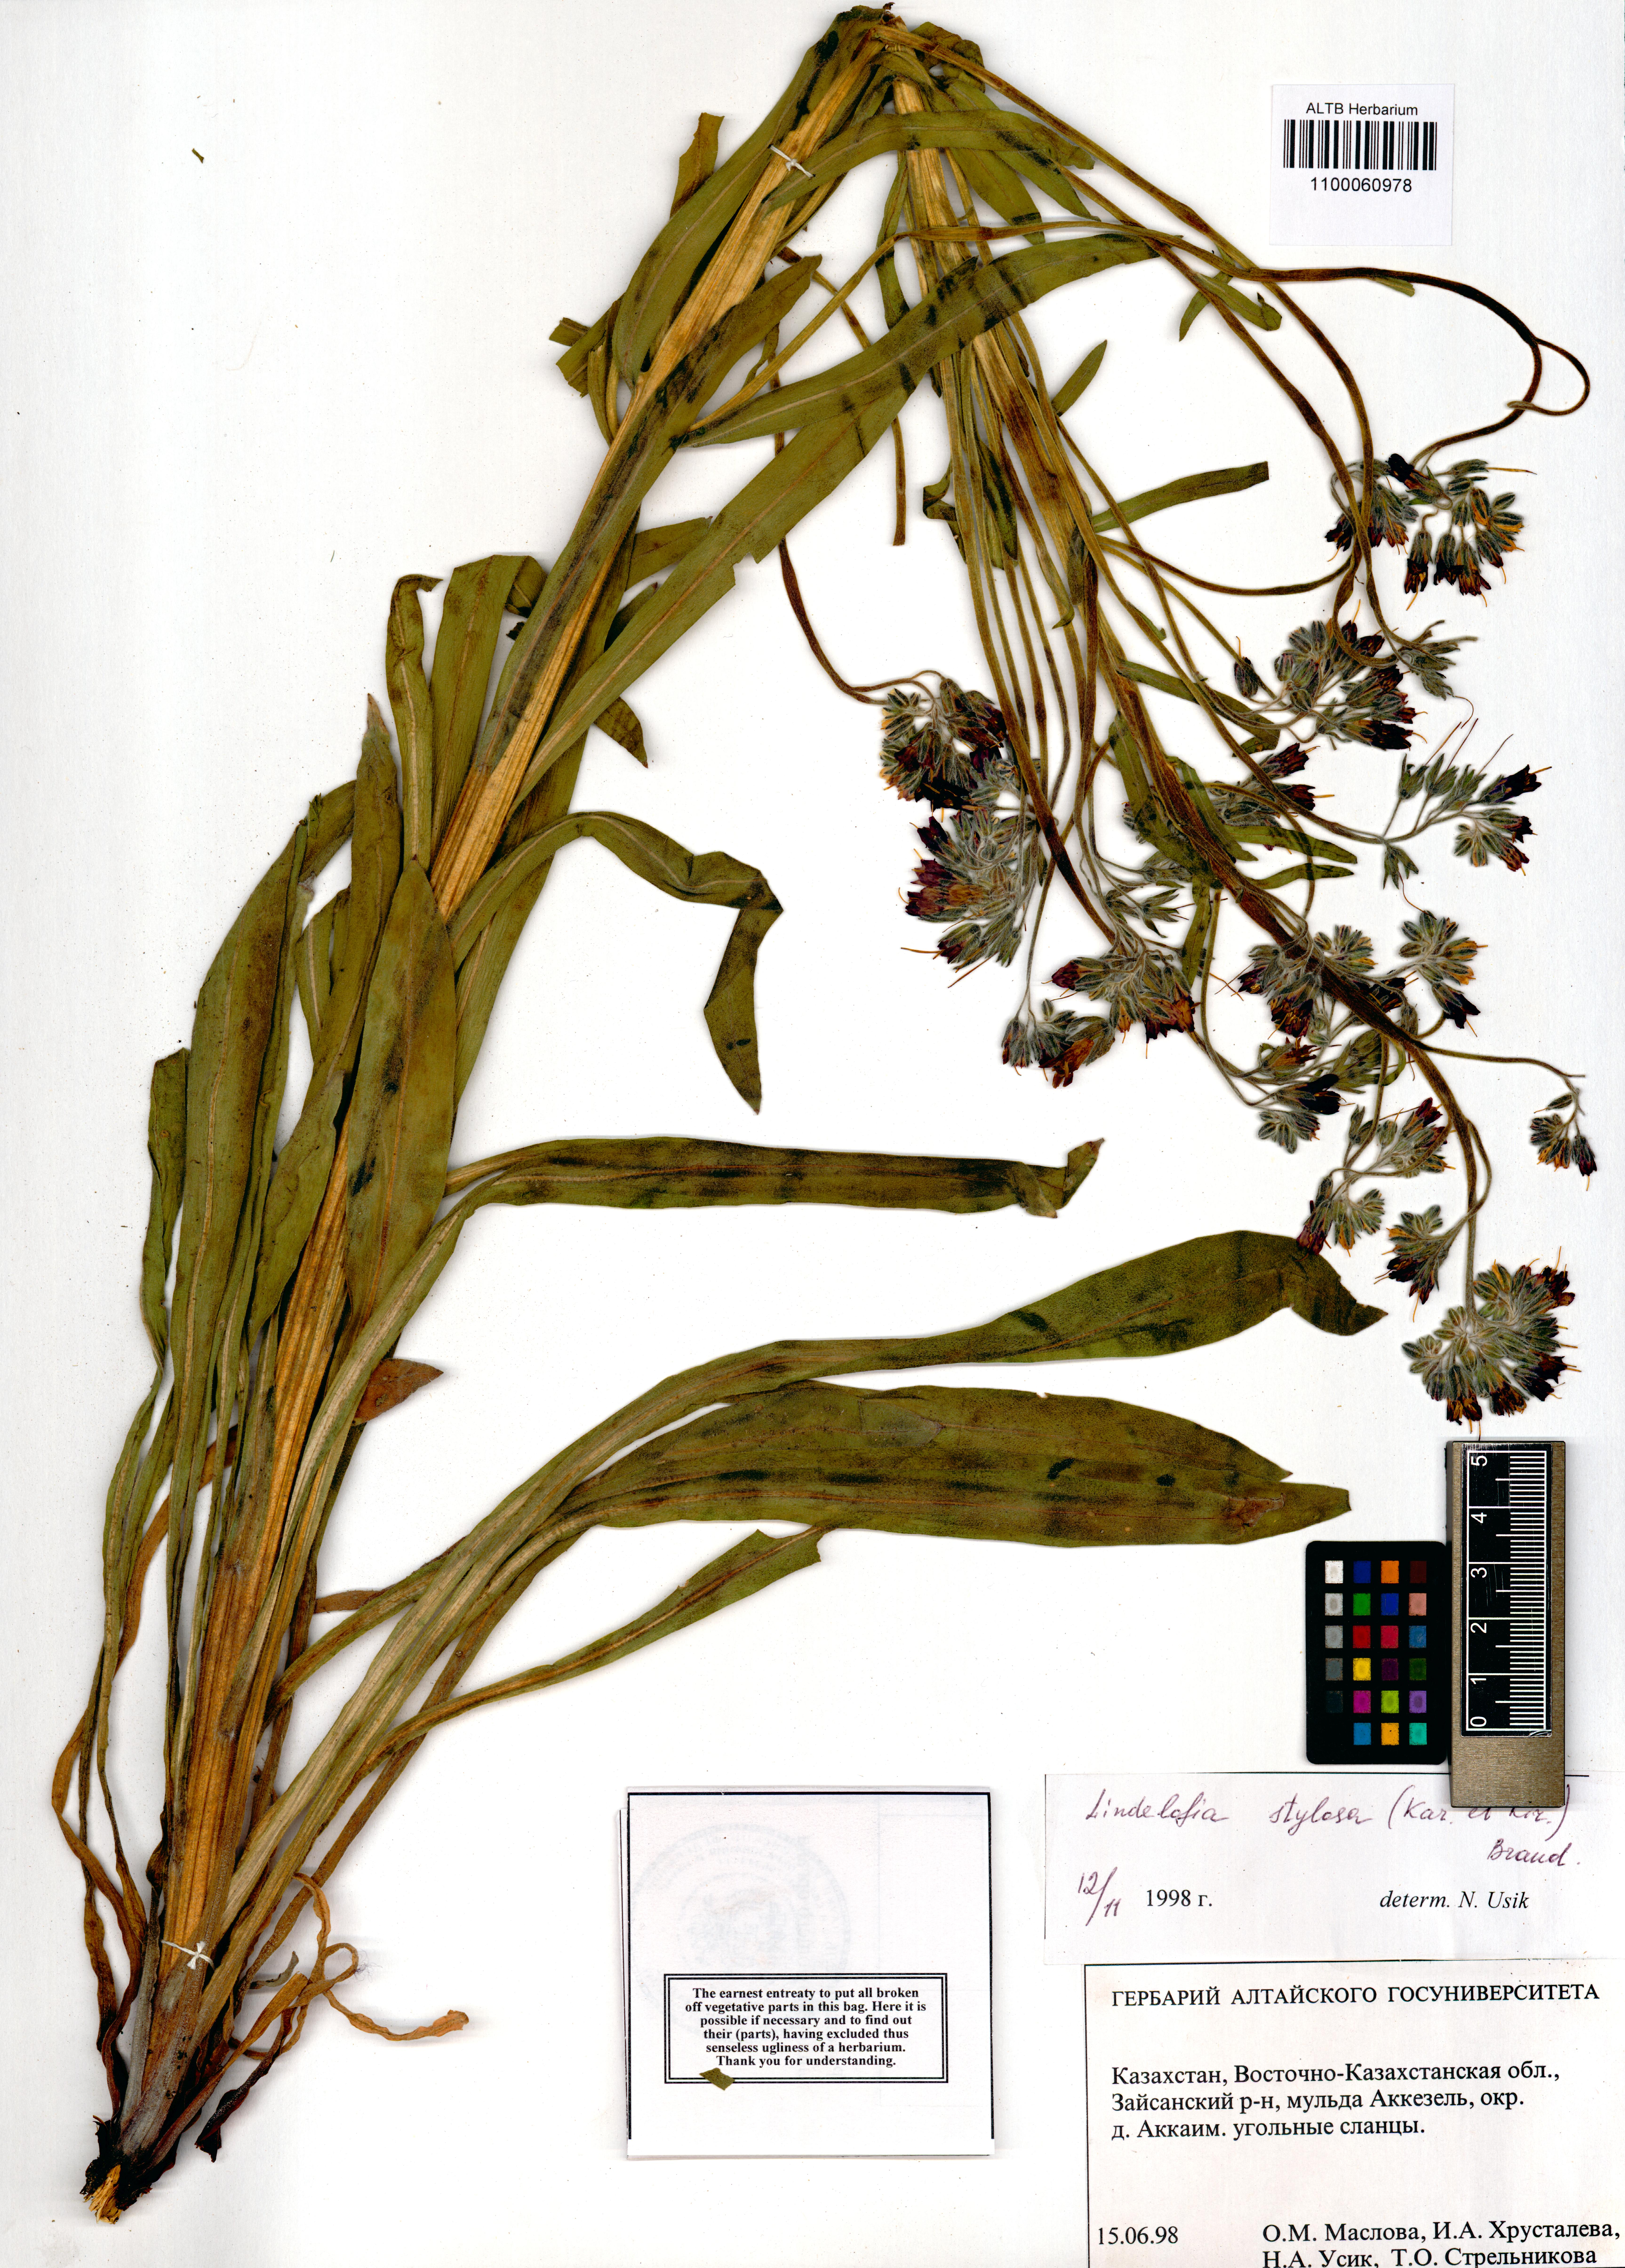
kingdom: Plantae
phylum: Tracheophyta
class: Magnoliopsida
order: Boraginales
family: Boraginaceae
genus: Lindelofia
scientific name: Lindelofia stylosa
